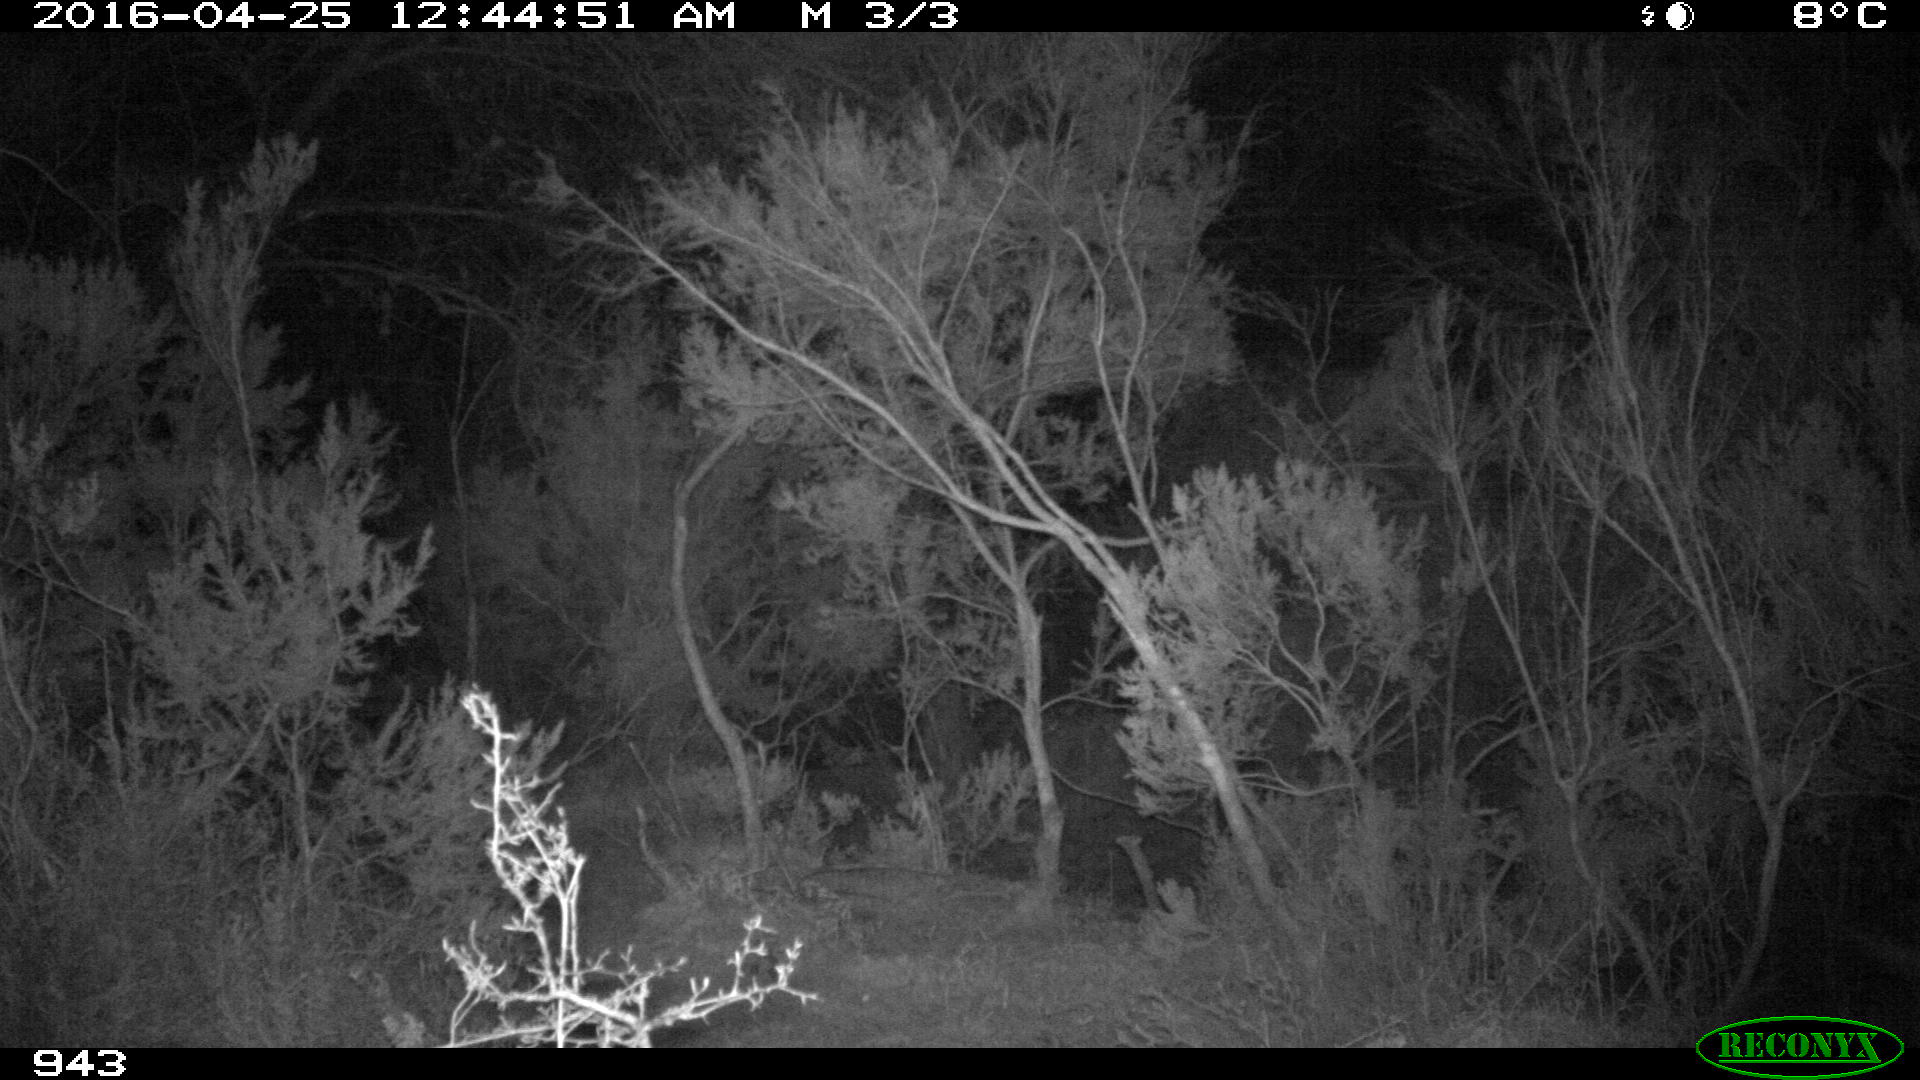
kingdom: Animalia
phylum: Chordata
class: Mammalia
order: Artiodactyla
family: Suidae
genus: Sus
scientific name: Sus scrofa
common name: Wild boar
